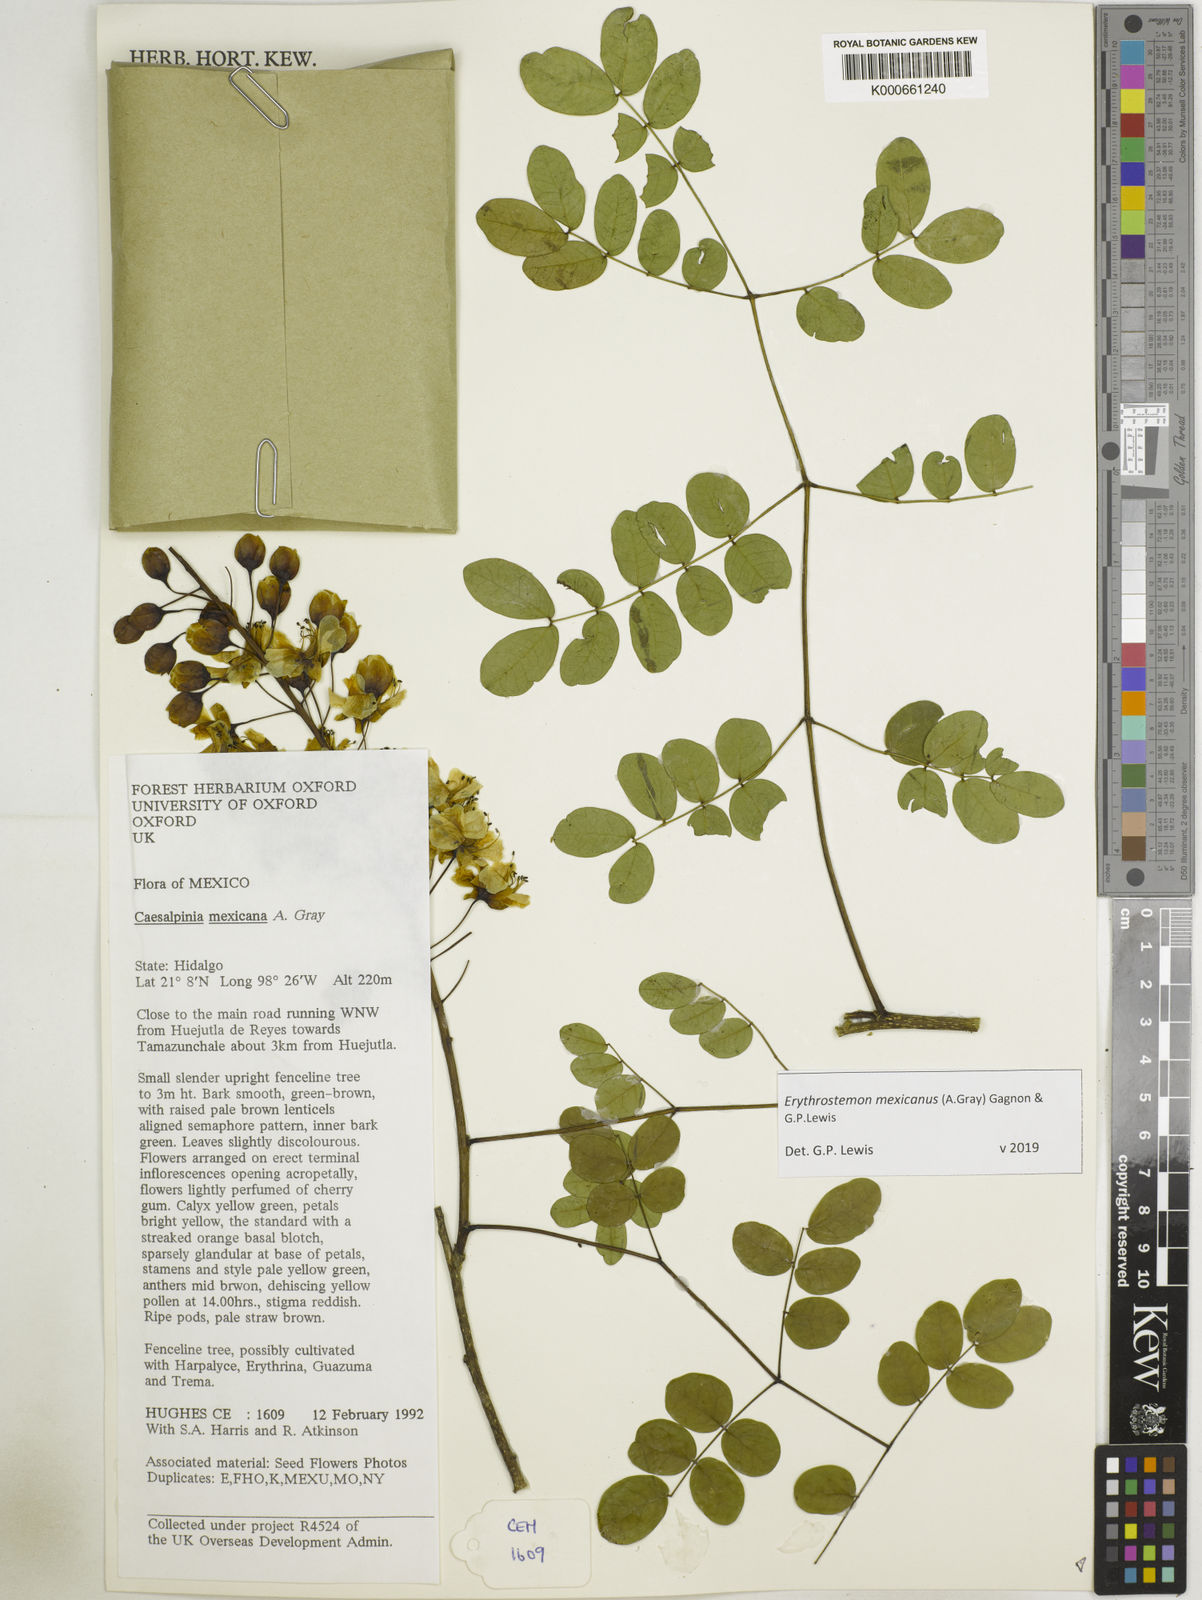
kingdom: Plantae
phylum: Tracheophyta
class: Magnoliopsida
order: Fabales
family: Fabaceae
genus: Erythrostemon
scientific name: Erythrostemon mexicanus
